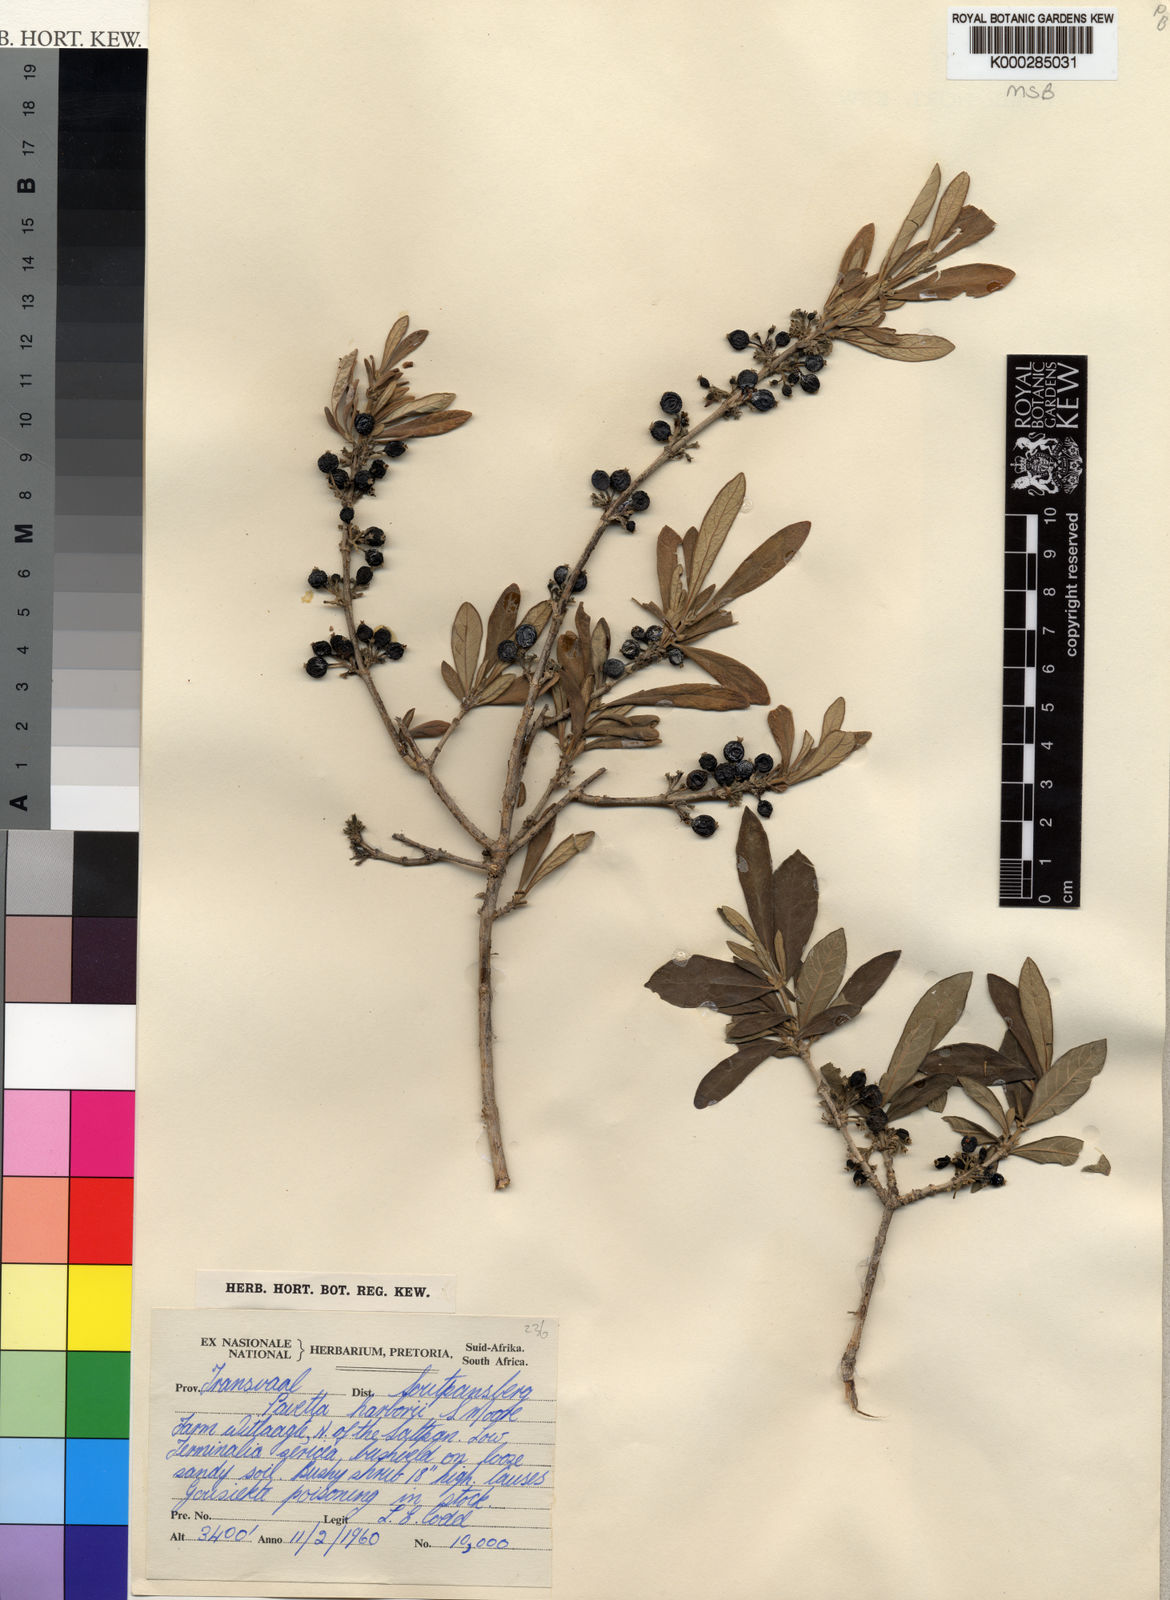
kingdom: Plantae
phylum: Tracheophyta
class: Magnoliopsida
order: Gentianales
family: Rubiaceae
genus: Pavetta
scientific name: Pavetta harborii
